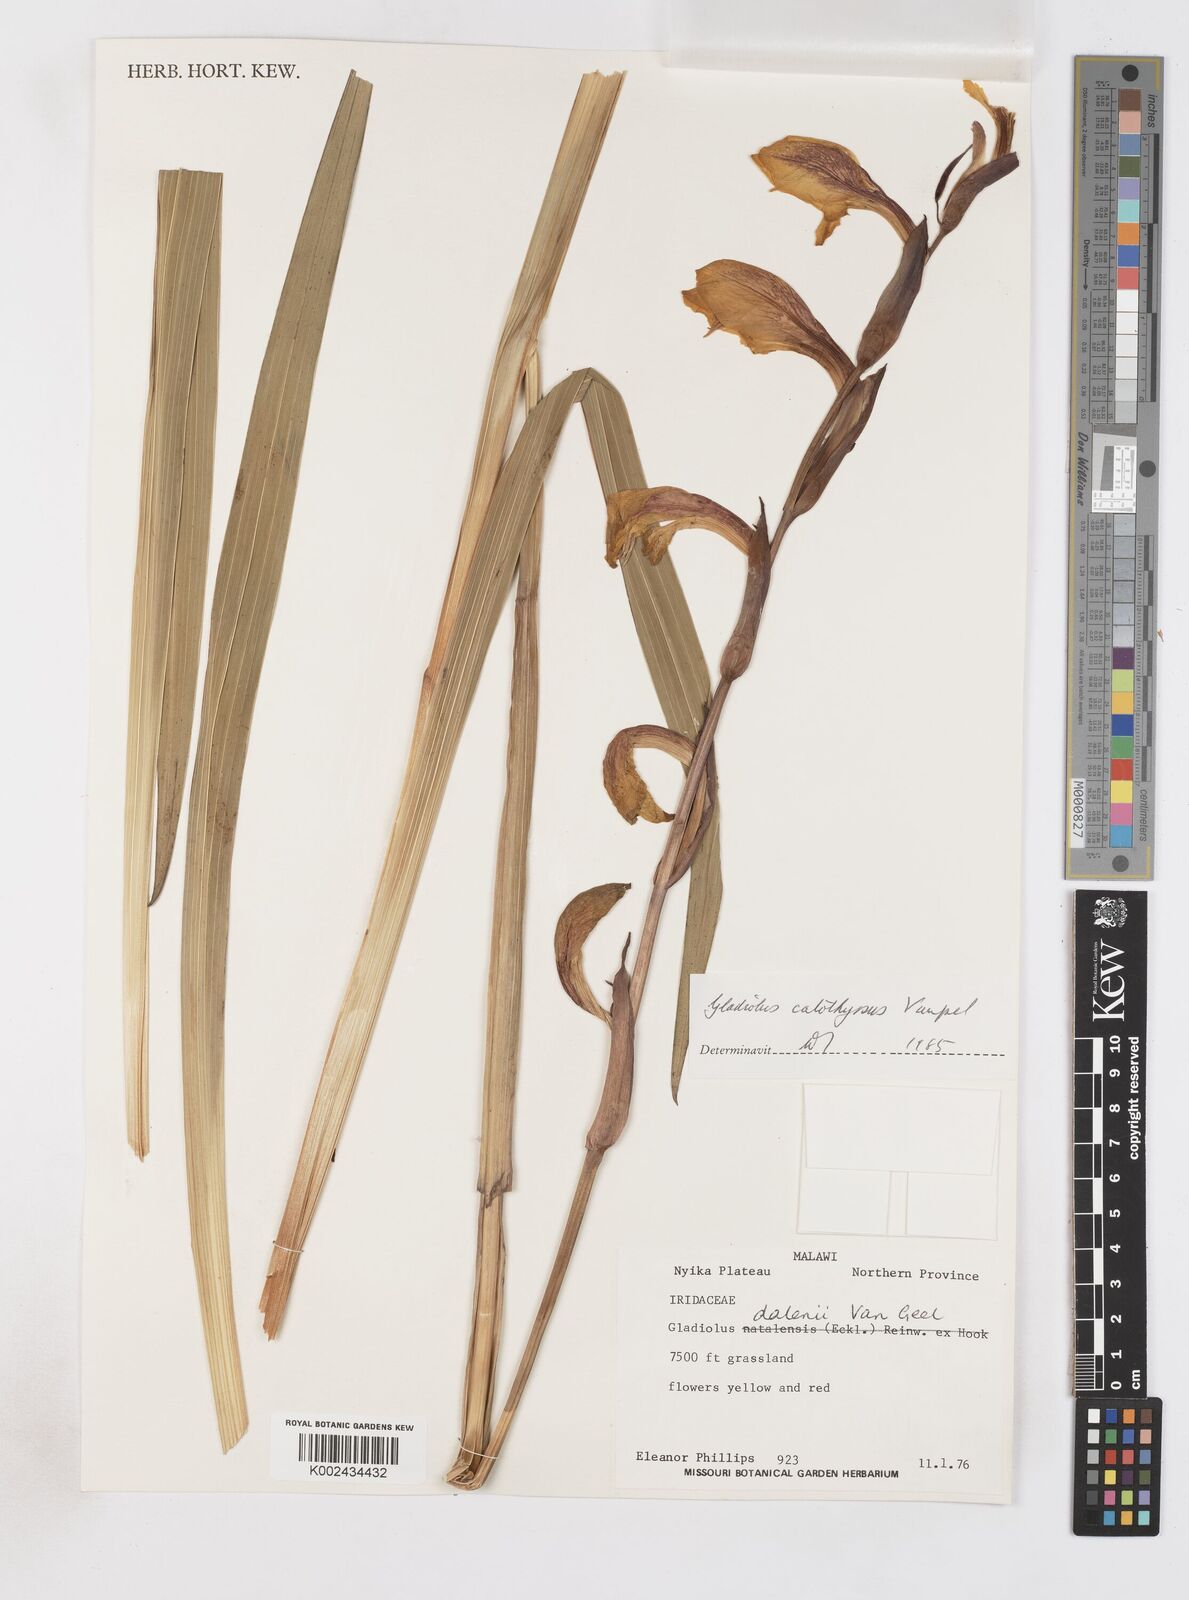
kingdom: Plantae
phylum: Tracheophyta
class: Liliopsida
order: Asparagales
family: Iridaceae
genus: Gladiolus
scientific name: Gladiolus dalenii
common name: Cornflag
